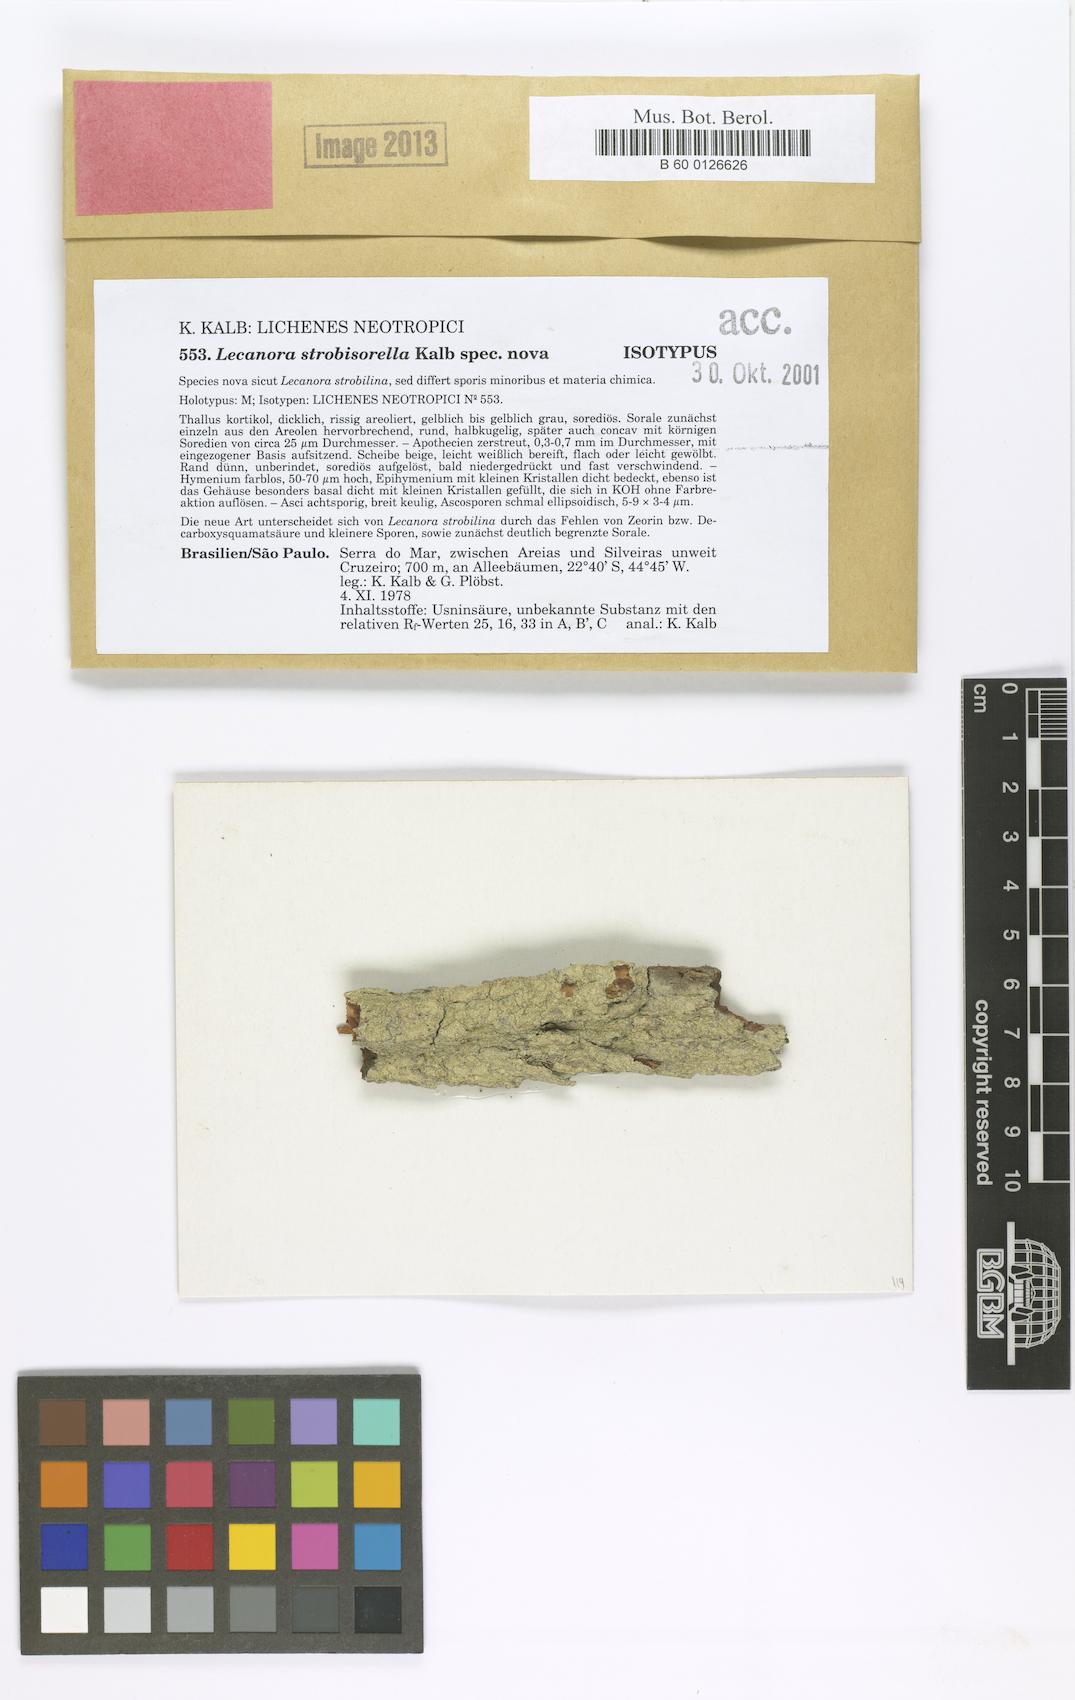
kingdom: Fungi
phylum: Ascomycota
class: Lecanoromycetes
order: Lecanorales
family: Lecanoraceae
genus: Lecanora
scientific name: Lecanora strobisorella
